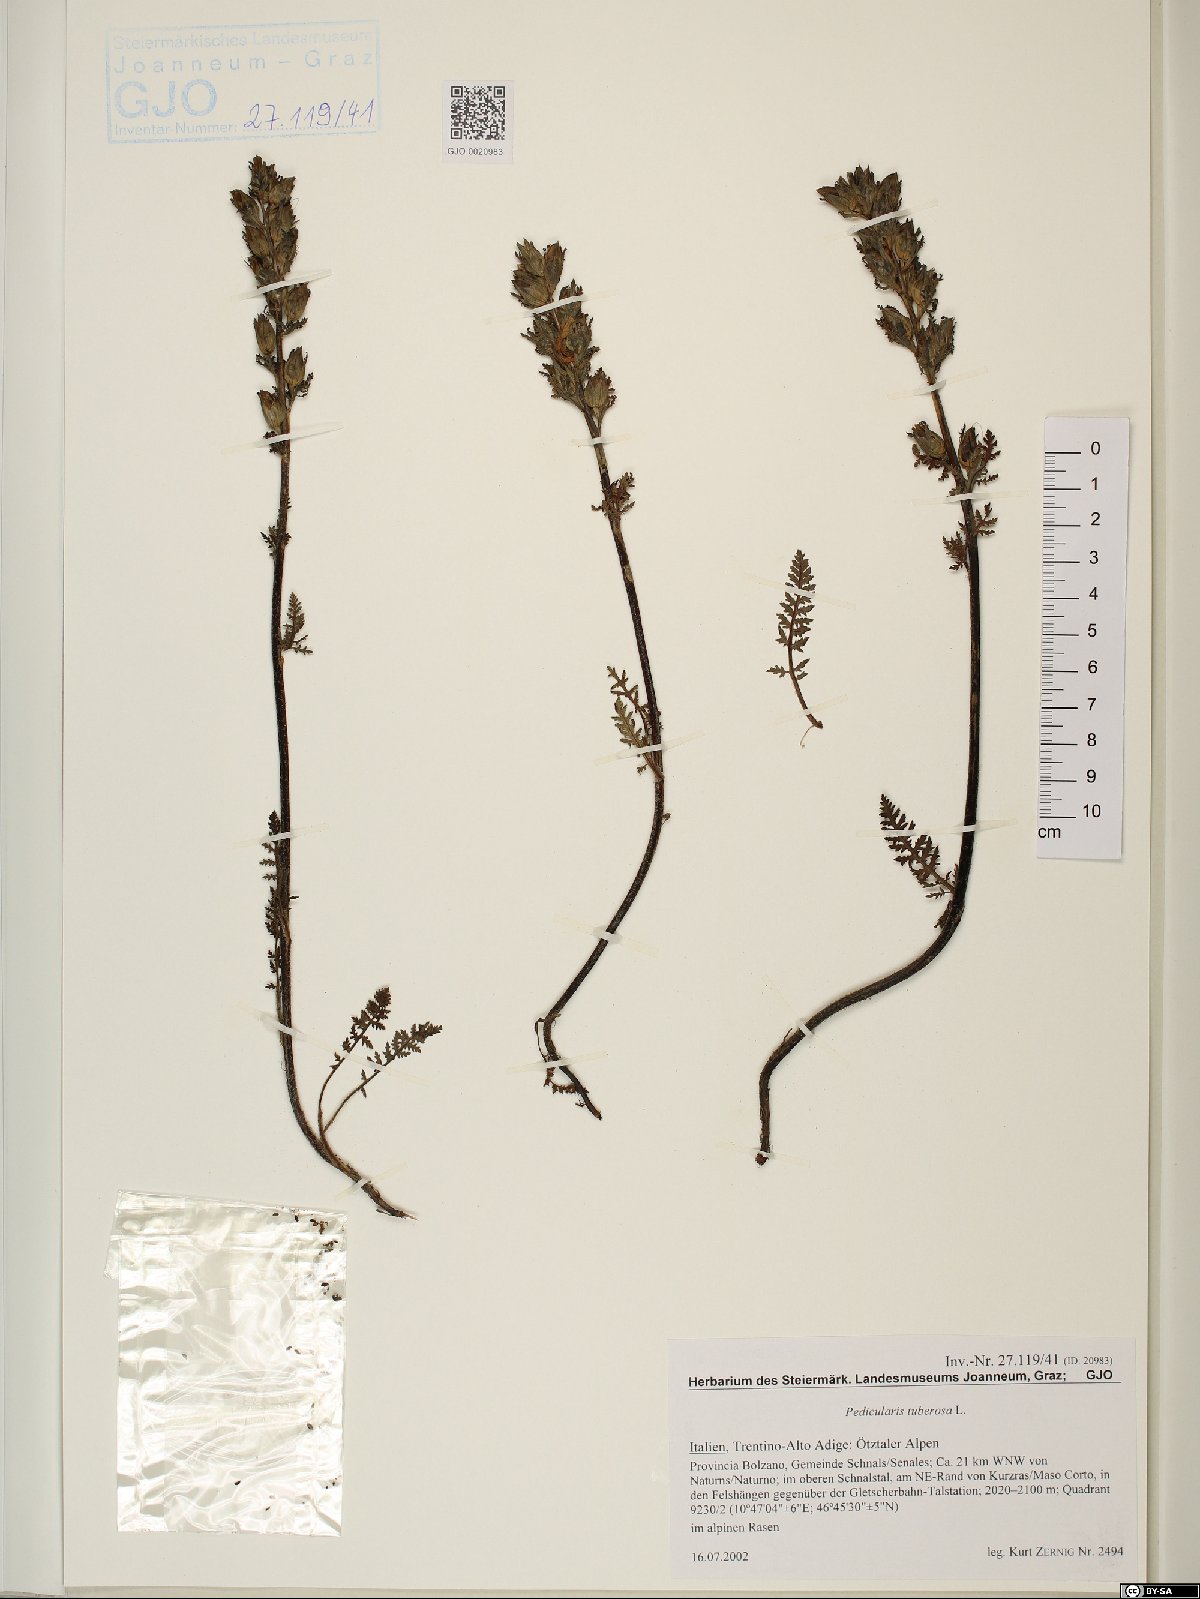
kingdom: Plantae
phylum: Tracheophyta
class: Magnoliopsida
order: Lamiales
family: Orobanchaceae
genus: Pedicularis
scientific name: Pedicularis tuberosa
